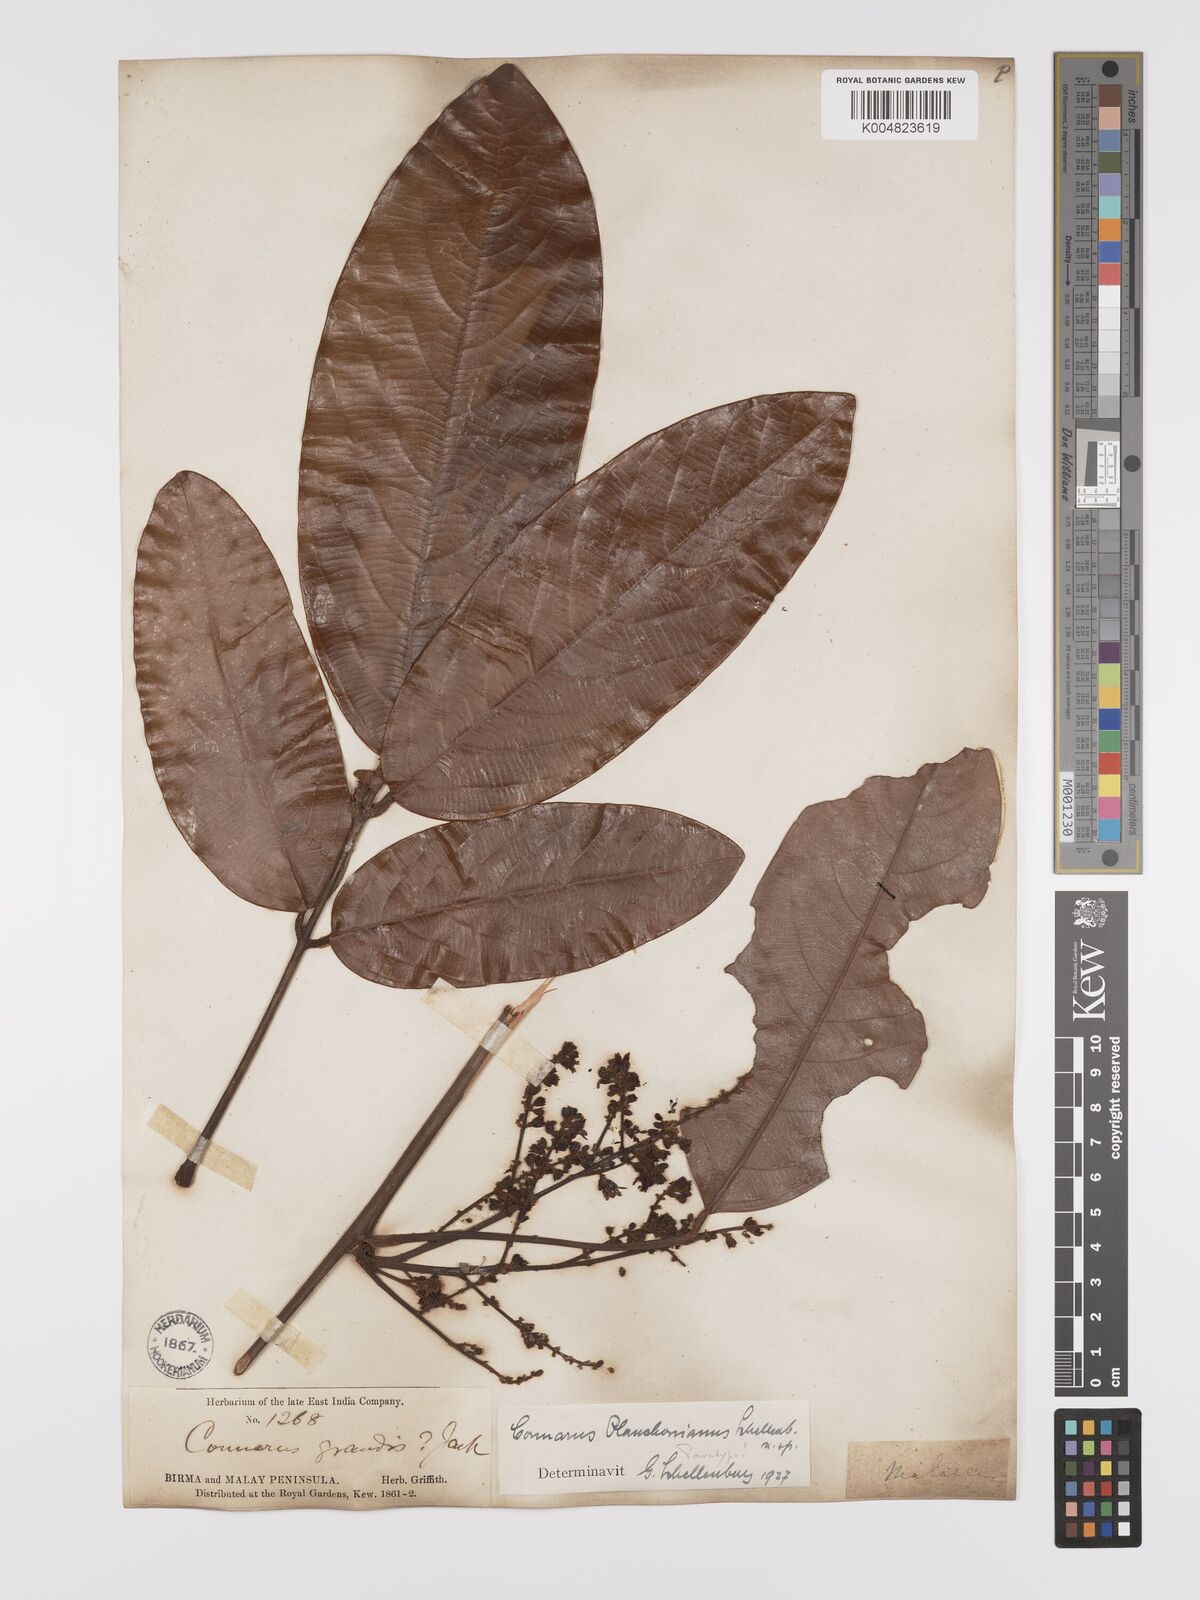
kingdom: Plantae
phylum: Tracheophyta
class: Magnoliopsida
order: Oxalidales
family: Connaraceae
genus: Connarus
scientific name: Connarus planchonianus
